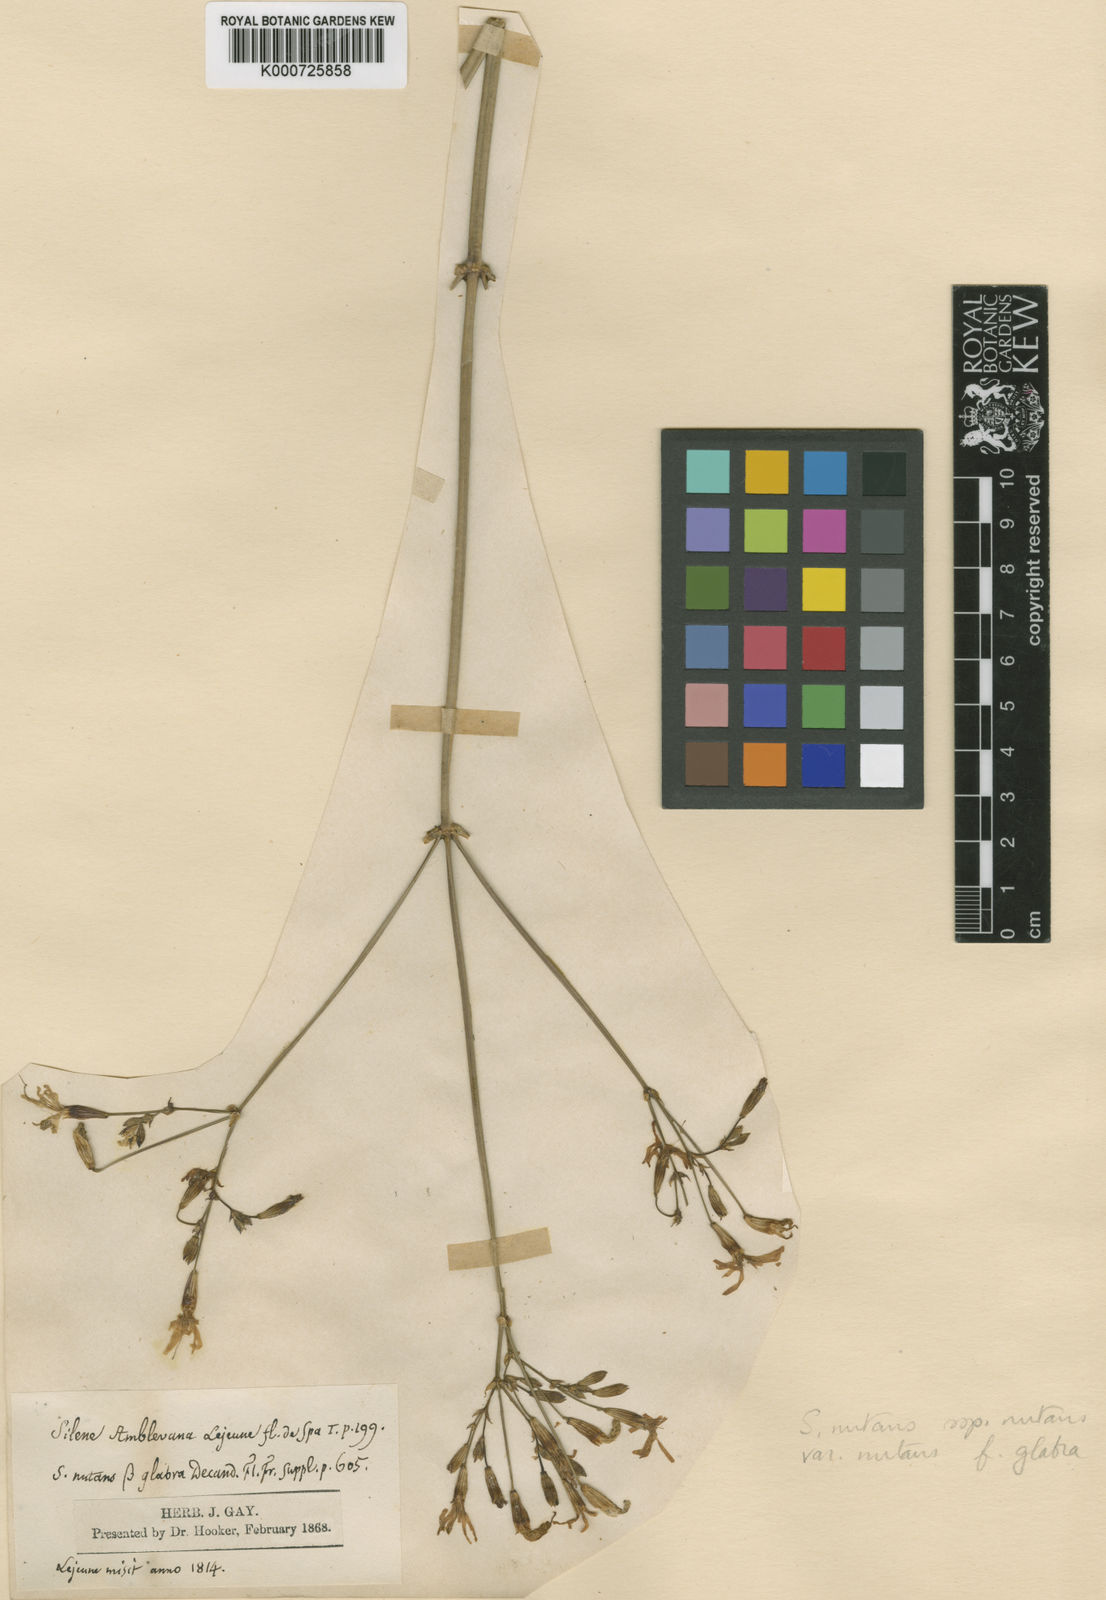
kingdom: Plantae
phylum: Tracheophyta
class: Magnoliopsida
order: Caryophyllales
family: Caryophyllaceae
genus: Silene
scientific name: Silene nutans
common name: Nottingham catchfly
